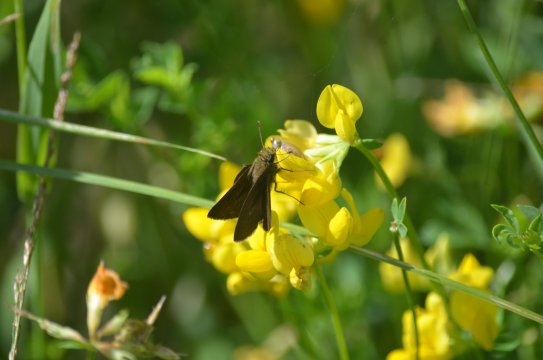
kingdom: Animalia
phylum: Arthropoda
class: Insecta
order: Lepidoptera
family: Hesperiidae
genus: Euphyes
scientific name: Euphyes vestris
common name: Dun Skipper
